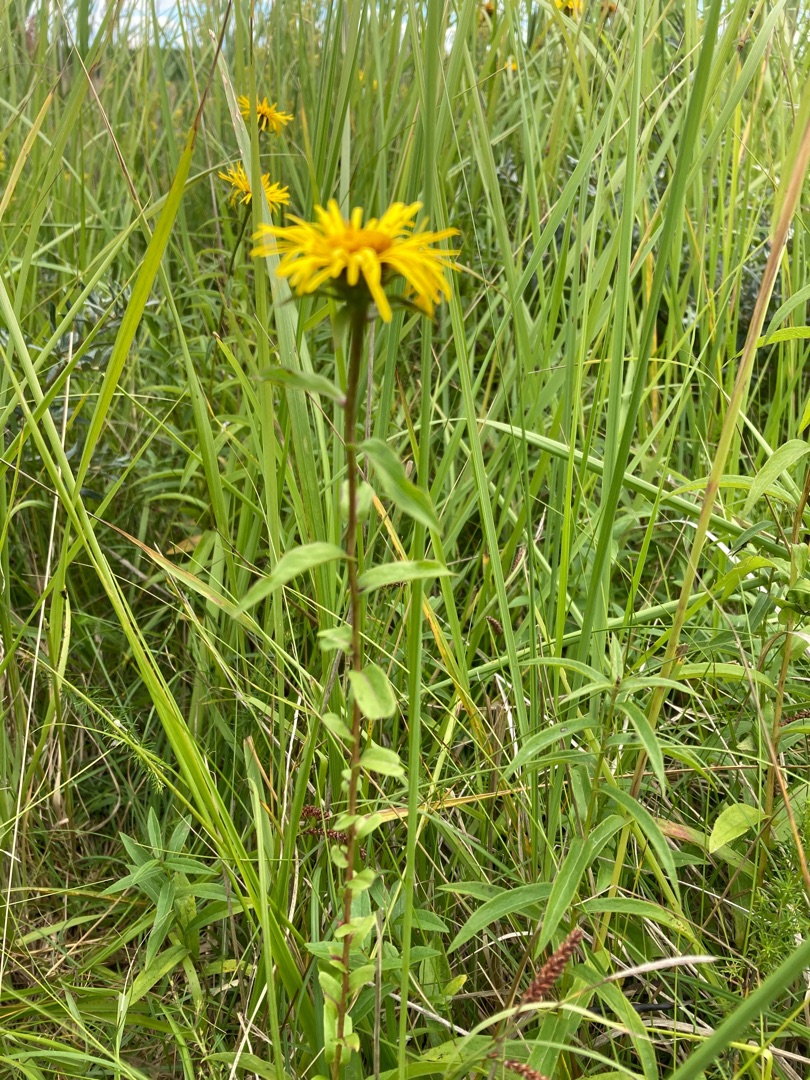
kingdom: Plantae
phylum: Tracheophyta
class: Magnoliopsida
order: Asterales
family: Asteraceae
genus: Pentanema
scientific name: Pentanema salicinum
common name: Pile-alant
